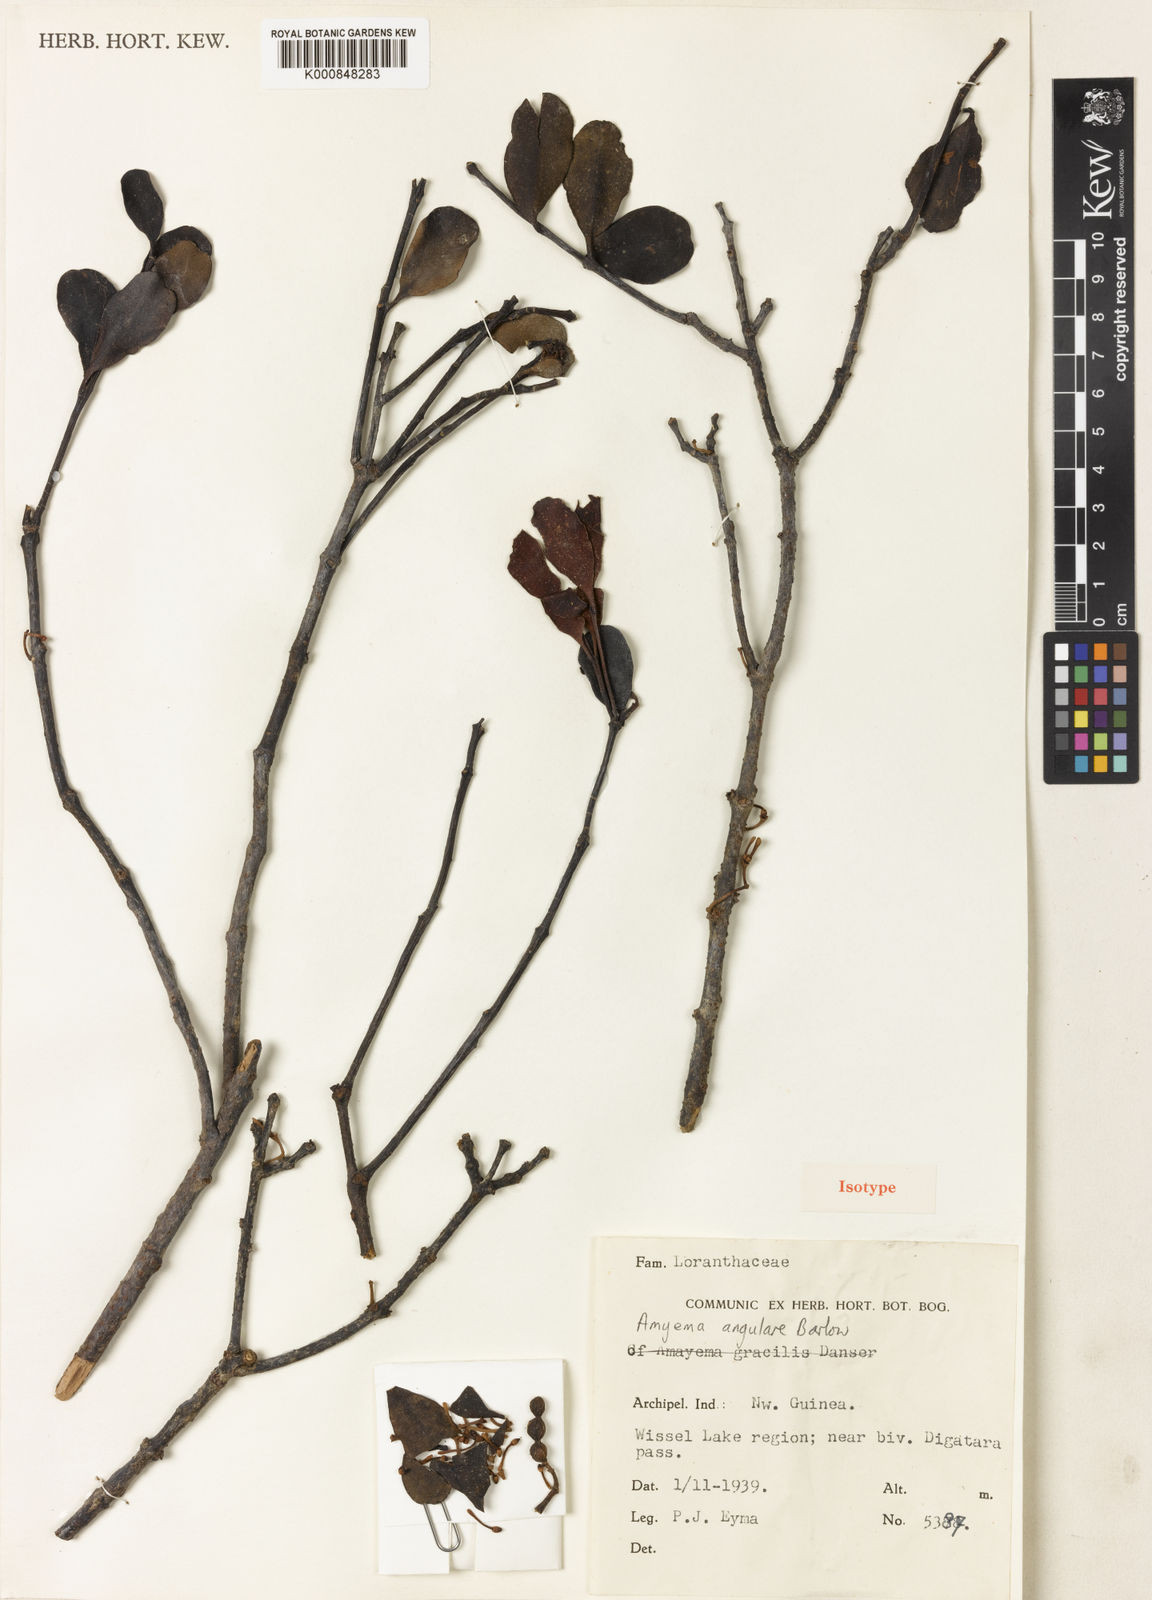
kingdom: Plantae
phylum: Tracheophyta
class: Magnoliopsida
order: Santalales
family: Loranthaceae
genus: Amyema
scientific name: Amyema plicatula
